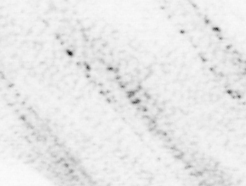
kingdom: Animalia
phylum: Chordata
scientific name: Chordata
